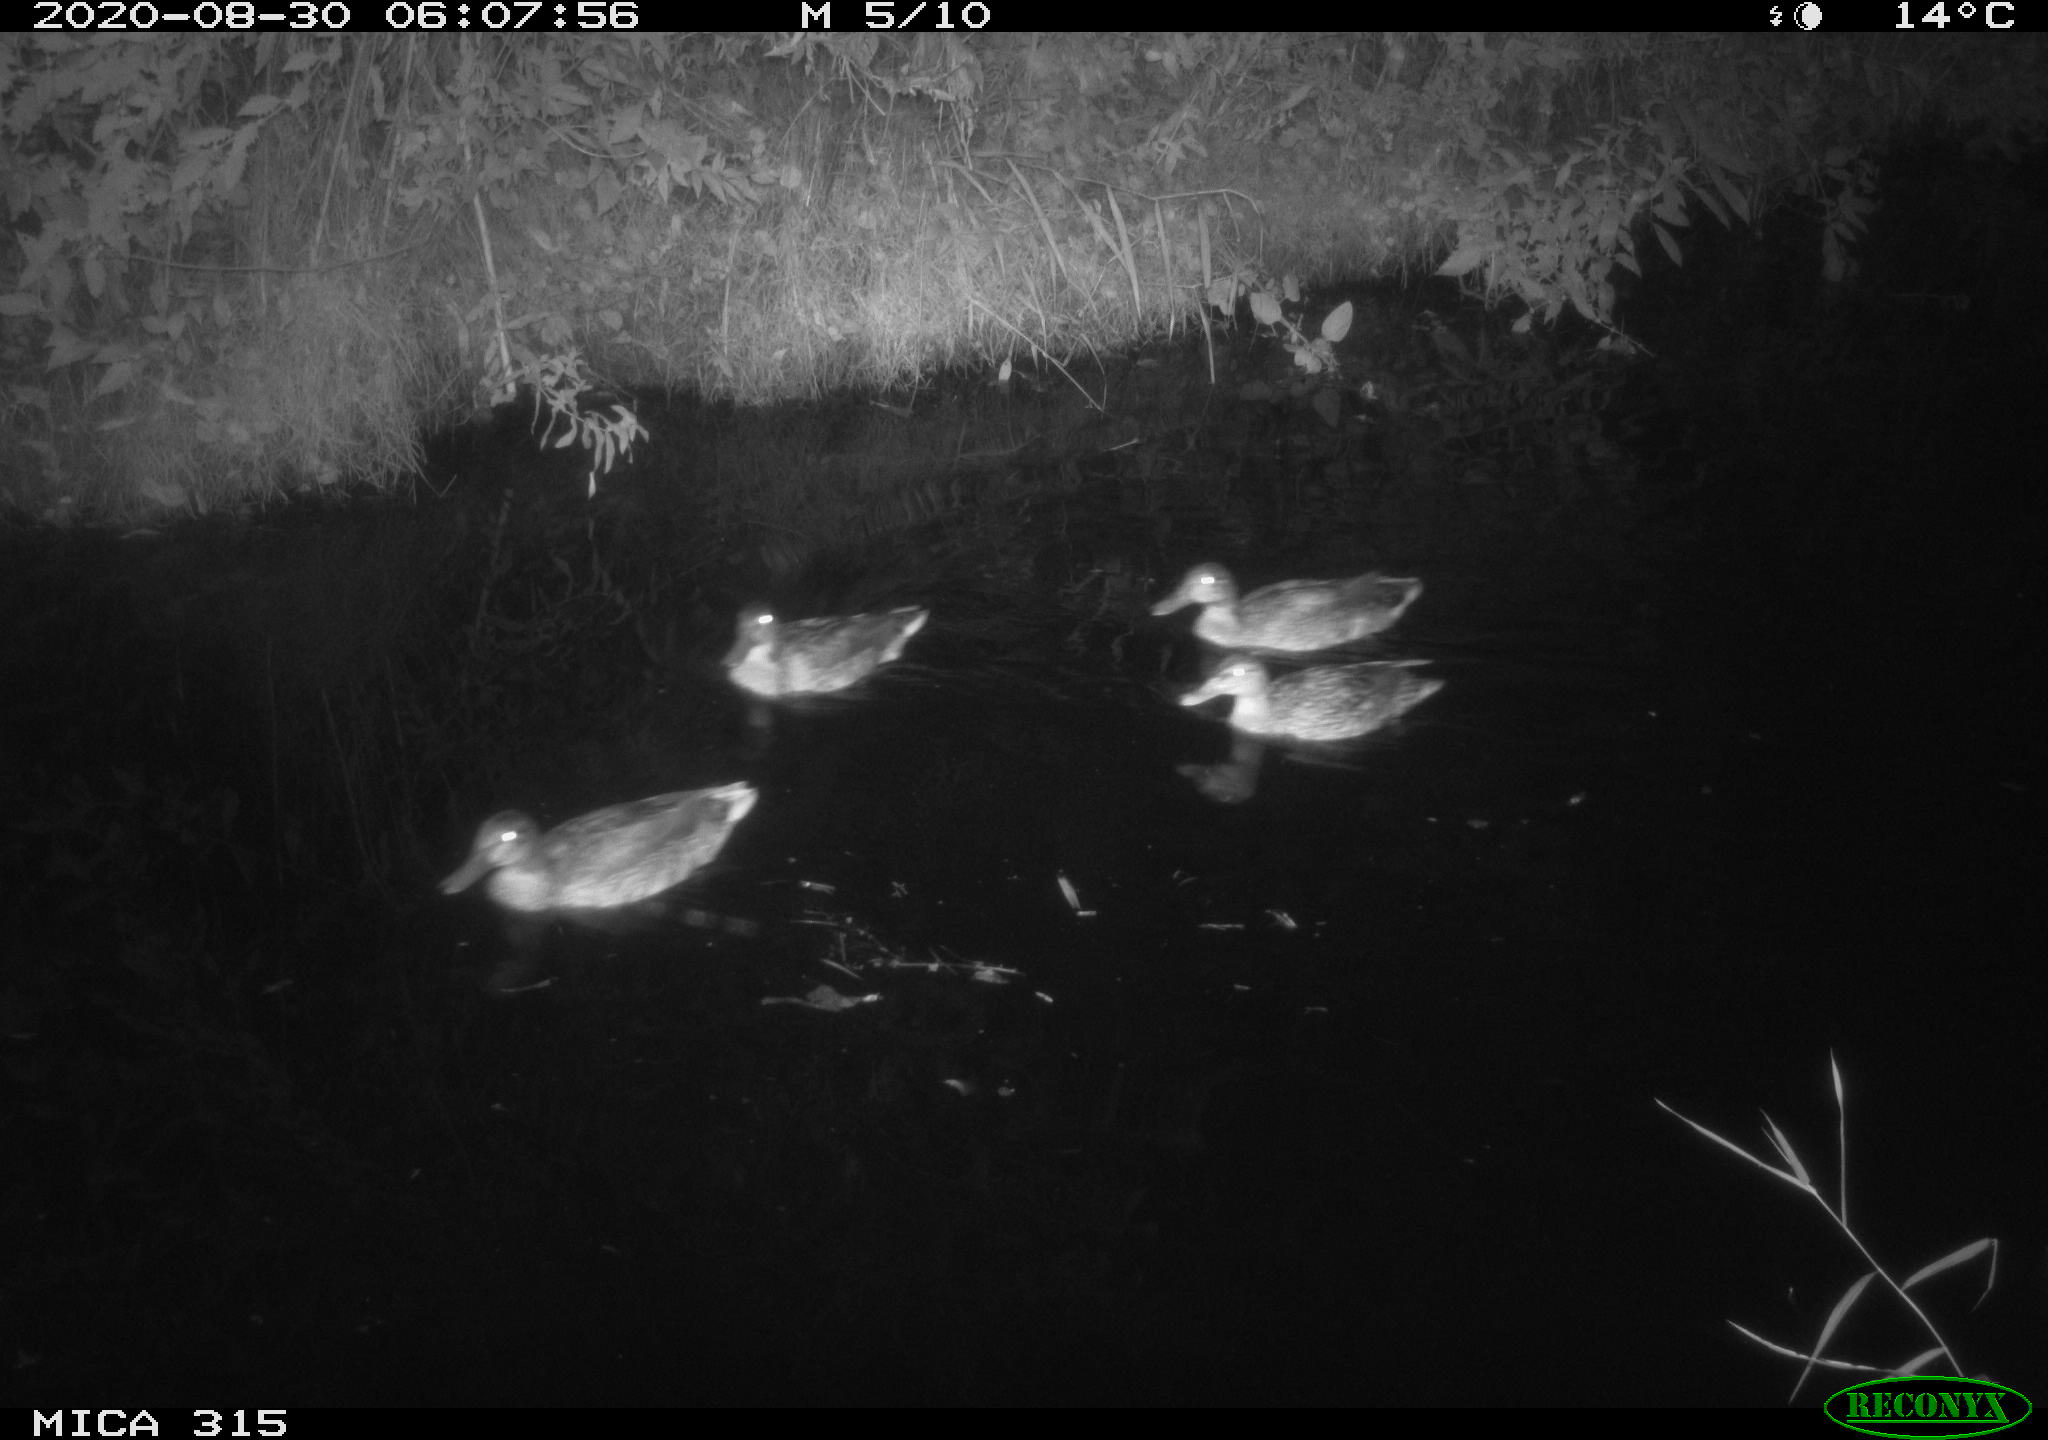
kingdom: Animalia
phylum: Chordata
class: Aves
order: Anseriformes
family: Anatidae
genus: Anas
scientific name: Anas platyrhynchos
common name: Mallard
